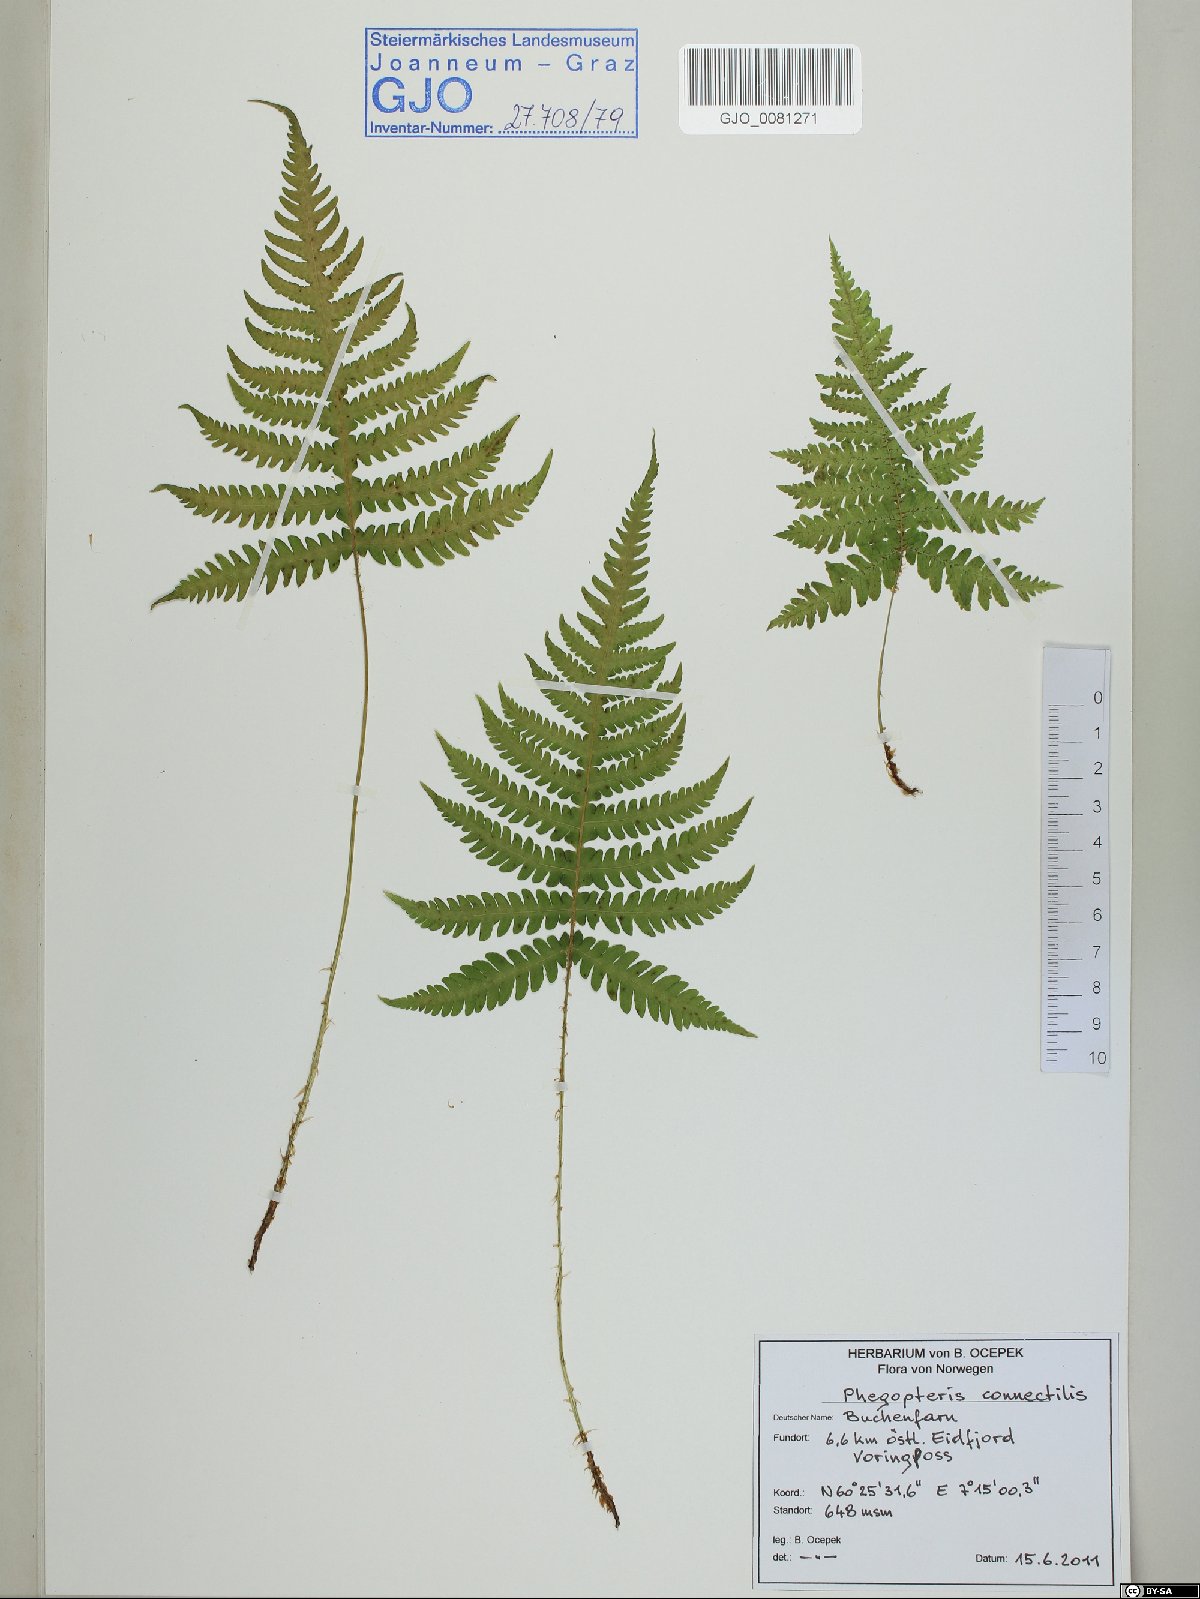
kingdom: Plantae
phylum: Tracheophyta
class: Polypodiopsida
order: Polypodiales
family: Thelypteridaceae
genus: Phegopteris
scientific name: Phegopteris connectilis
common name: Beech fern
